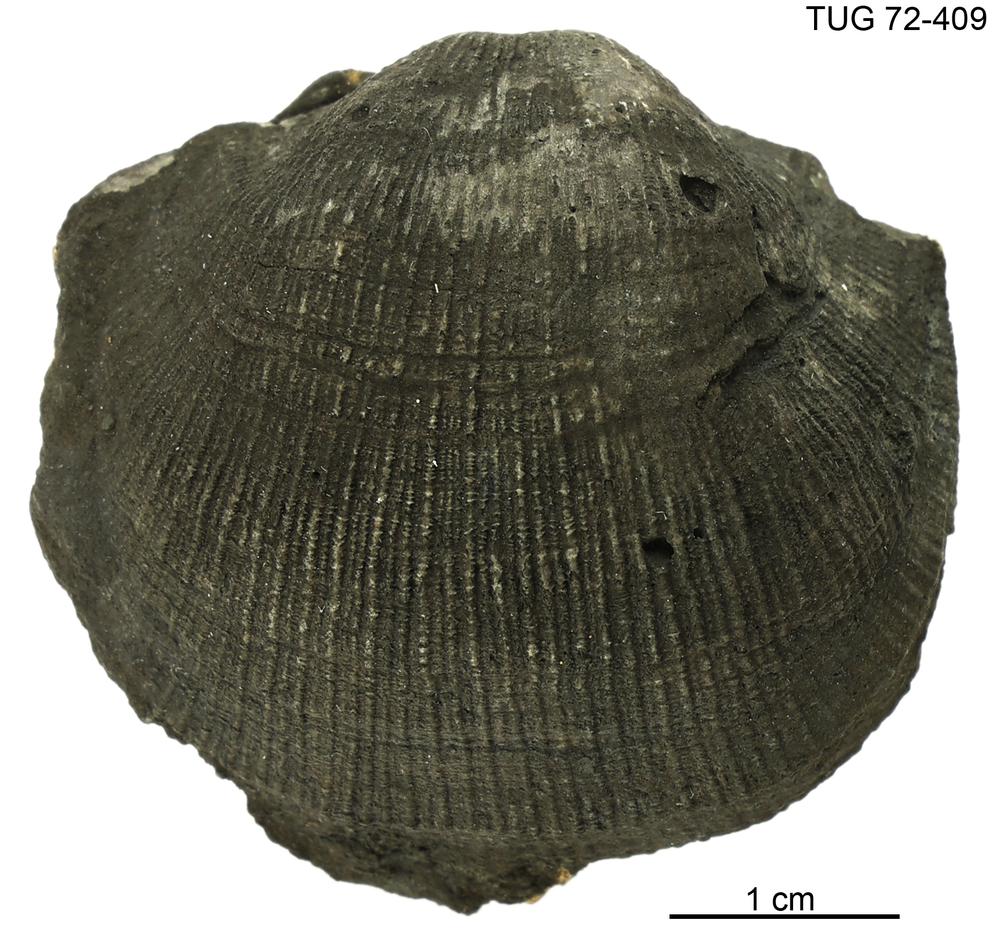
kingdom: Animalia
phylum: Brachiopoda
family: Gonambonitidae
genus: Estlandia
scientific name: Estlandia pyron
